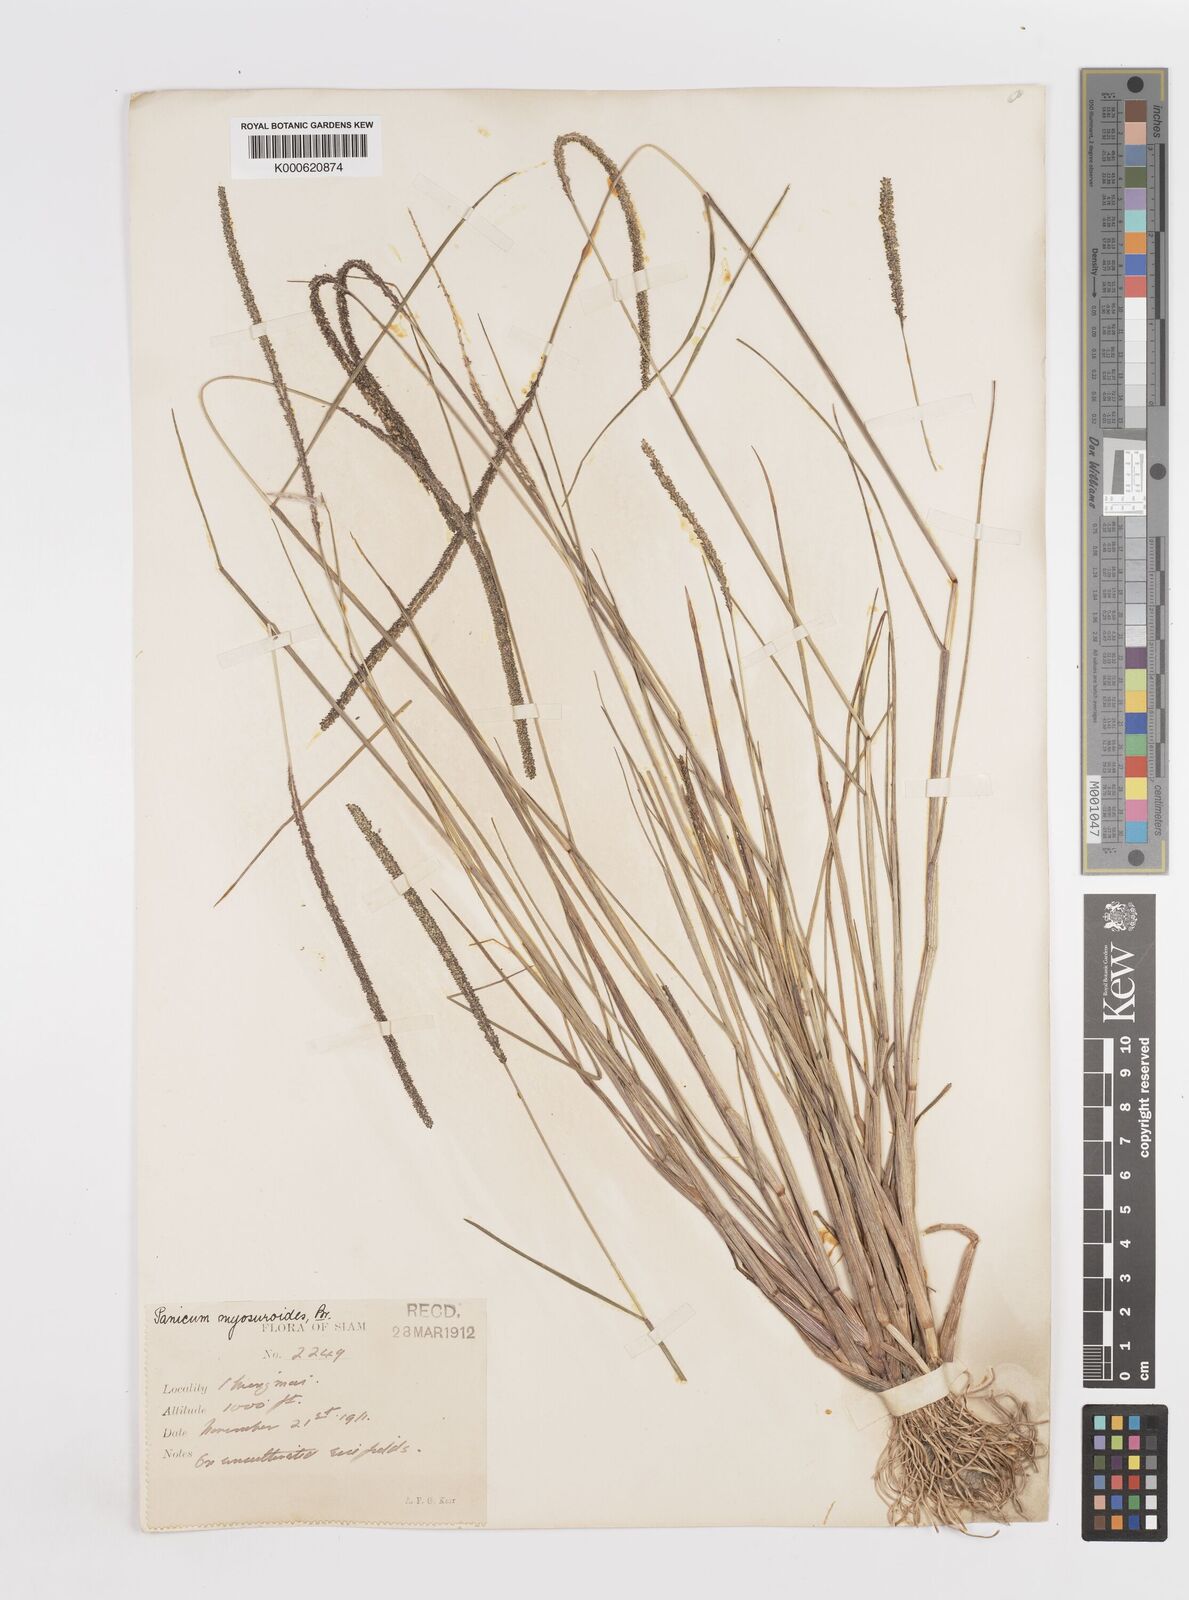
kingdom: Plantae
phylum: Tracheophyta
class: Liliopsida
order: Poales
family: Poaceae
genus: Sacciolepis
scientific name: Sacciolepis myosuroides
